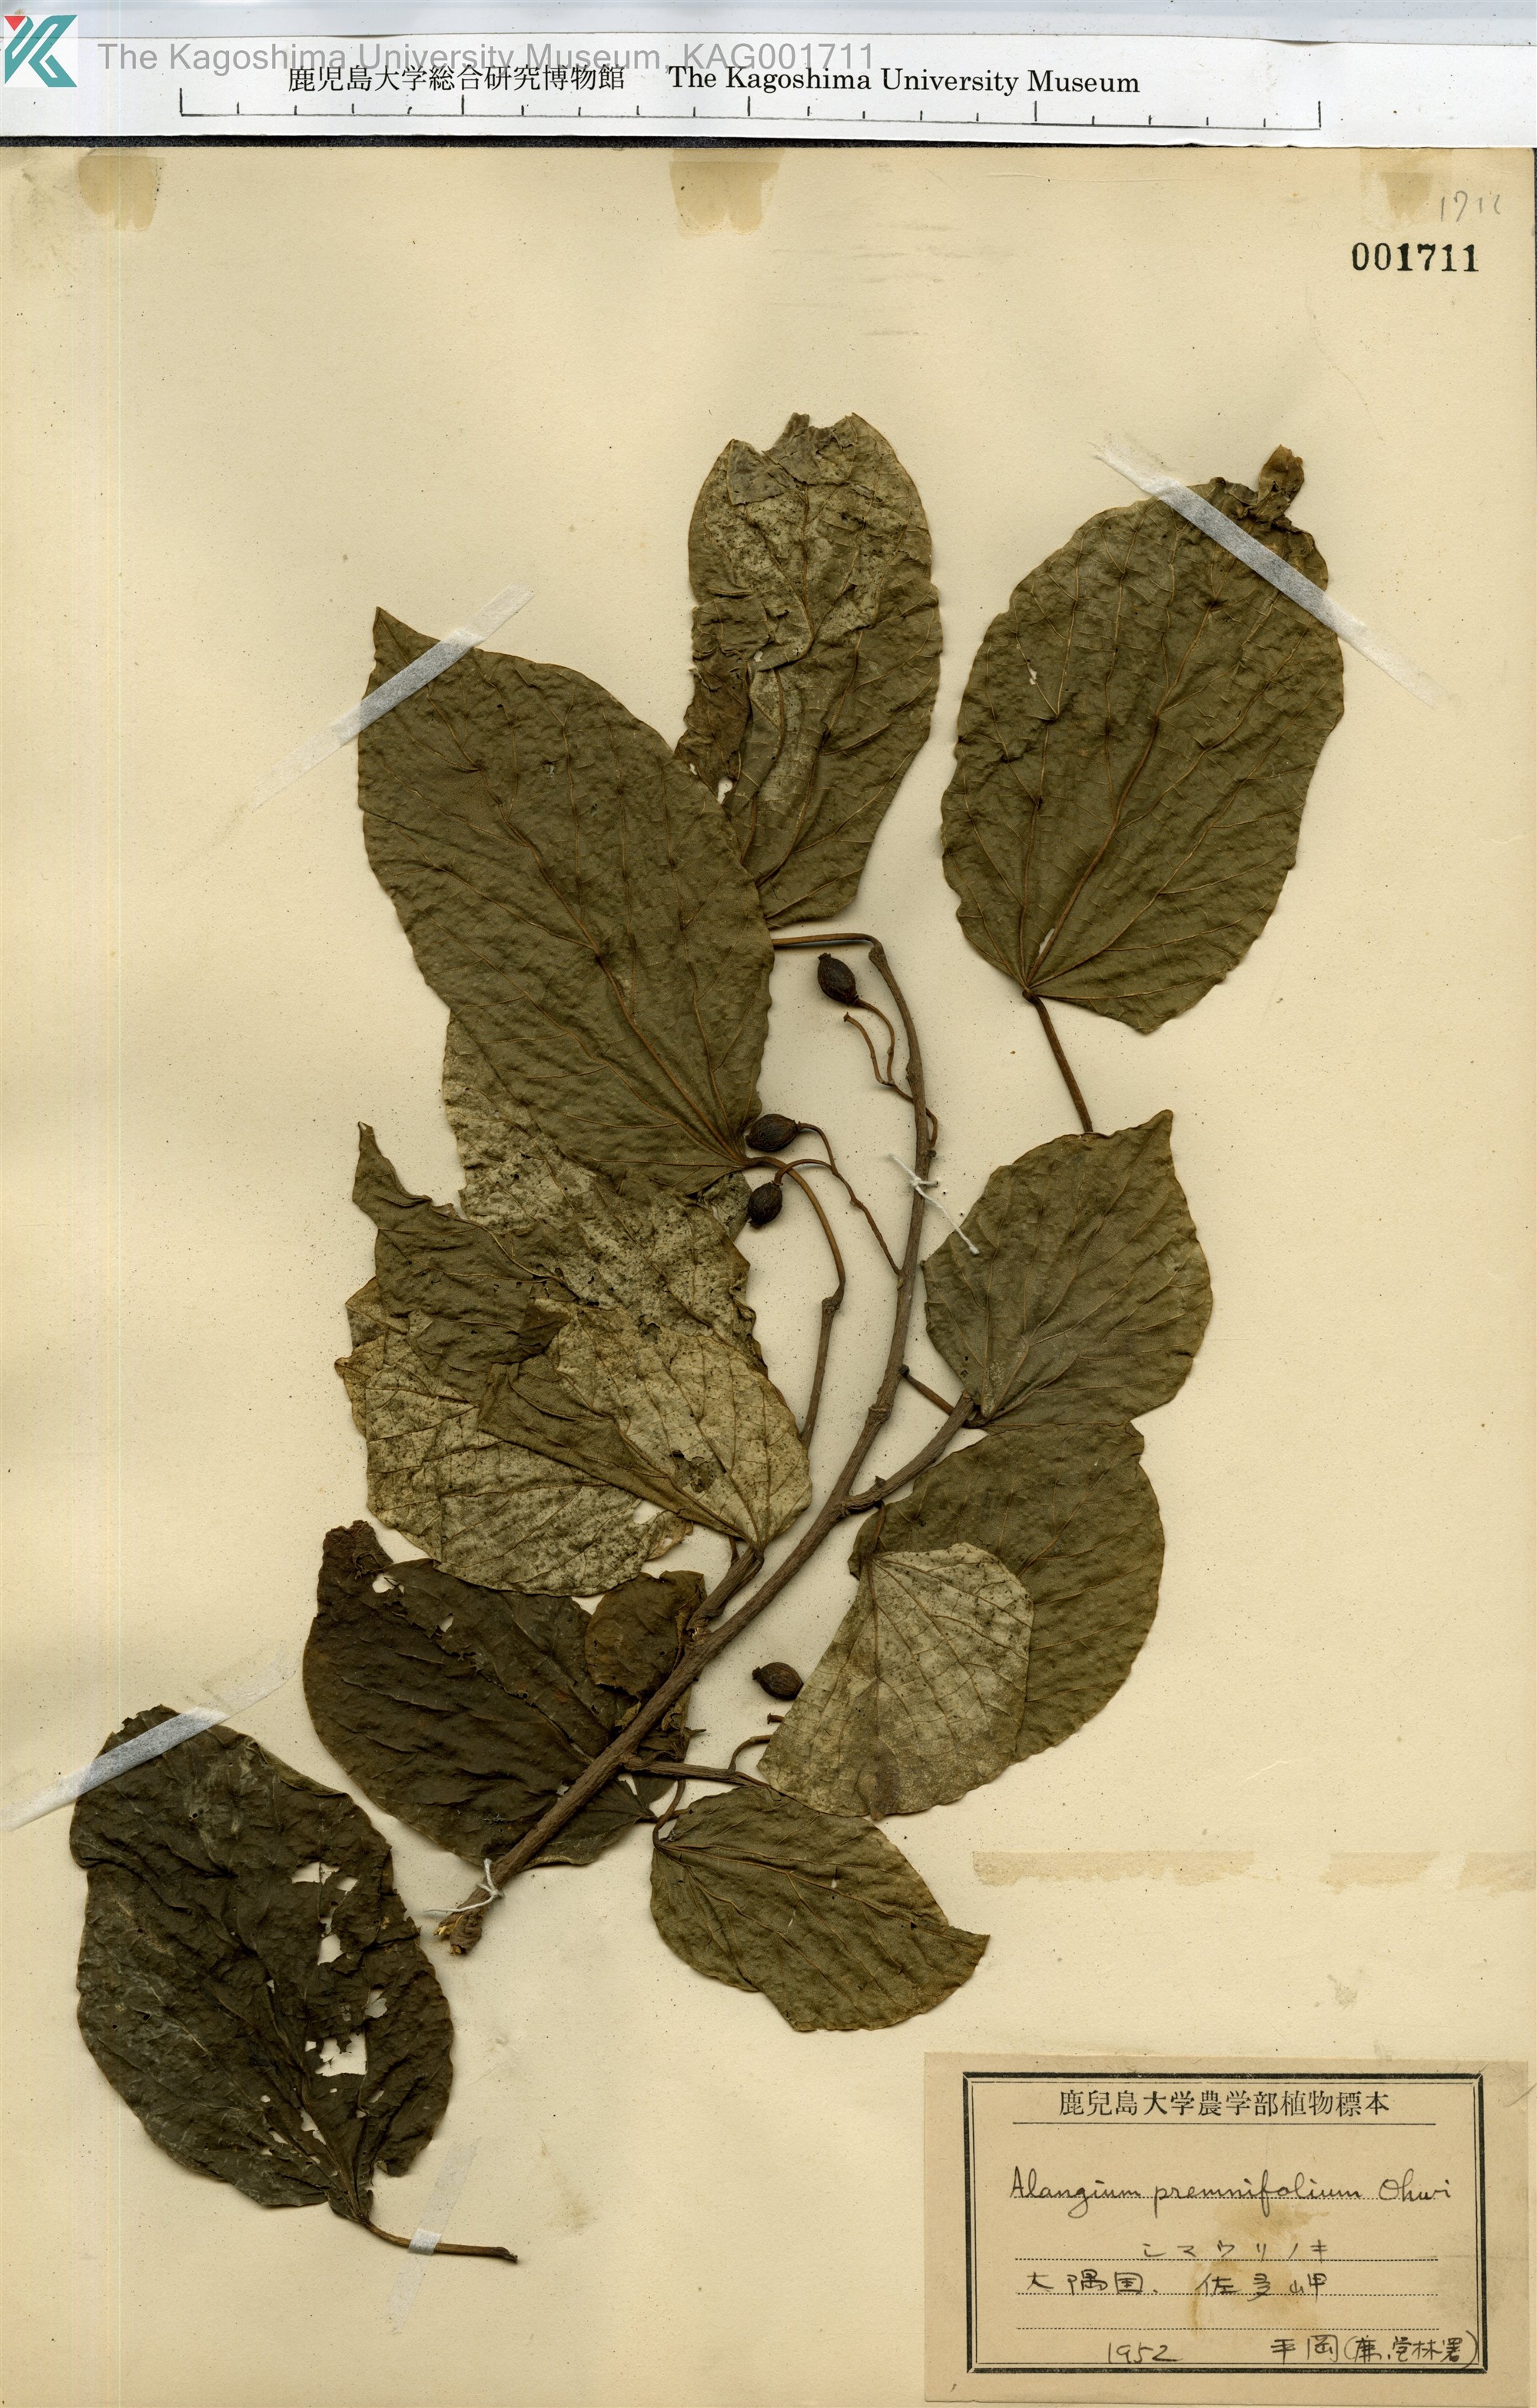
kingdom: Plantae
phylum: Tracheophyta
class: Magnoliopsida
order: Cornales
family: Cornaceae
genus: Alangium
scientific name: Alangium premnifolium
